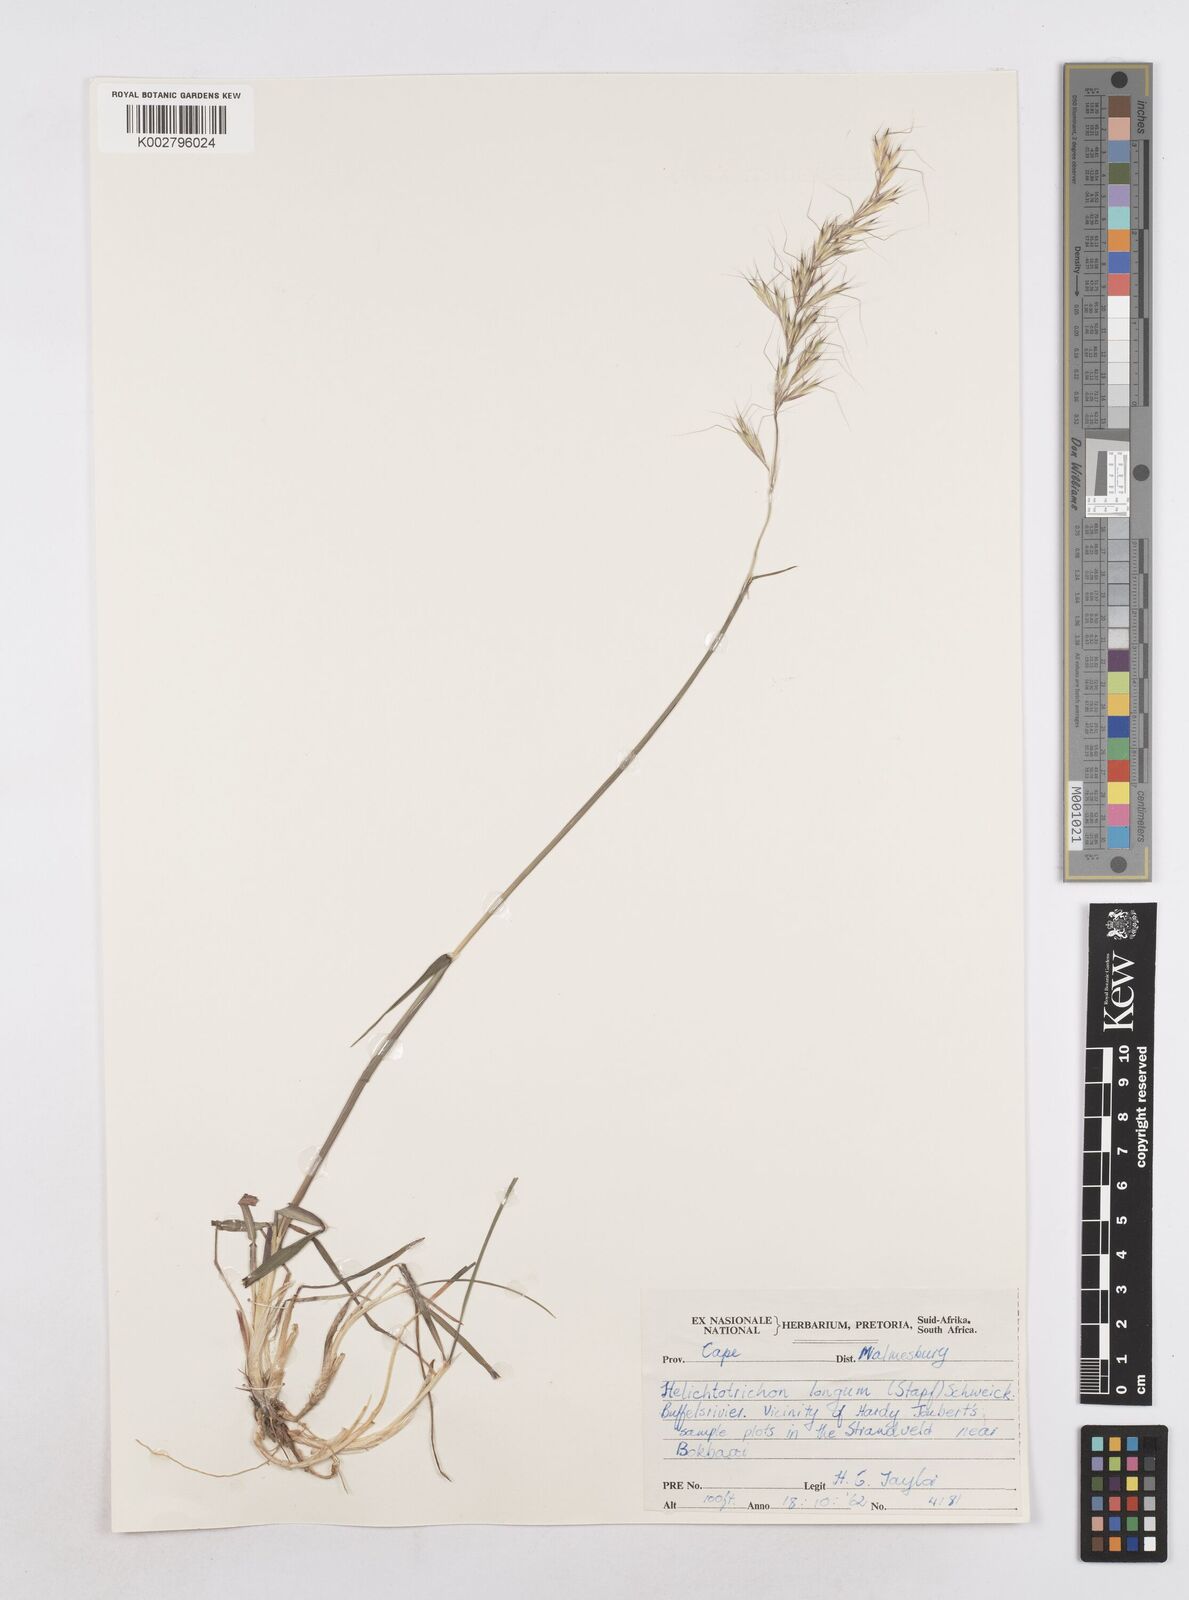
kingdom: Plantae
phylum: Tracheophyta
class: Liliopsida
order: Poales
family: Poaceae
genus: Trisetopsis
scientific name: Trisetopsis longa
